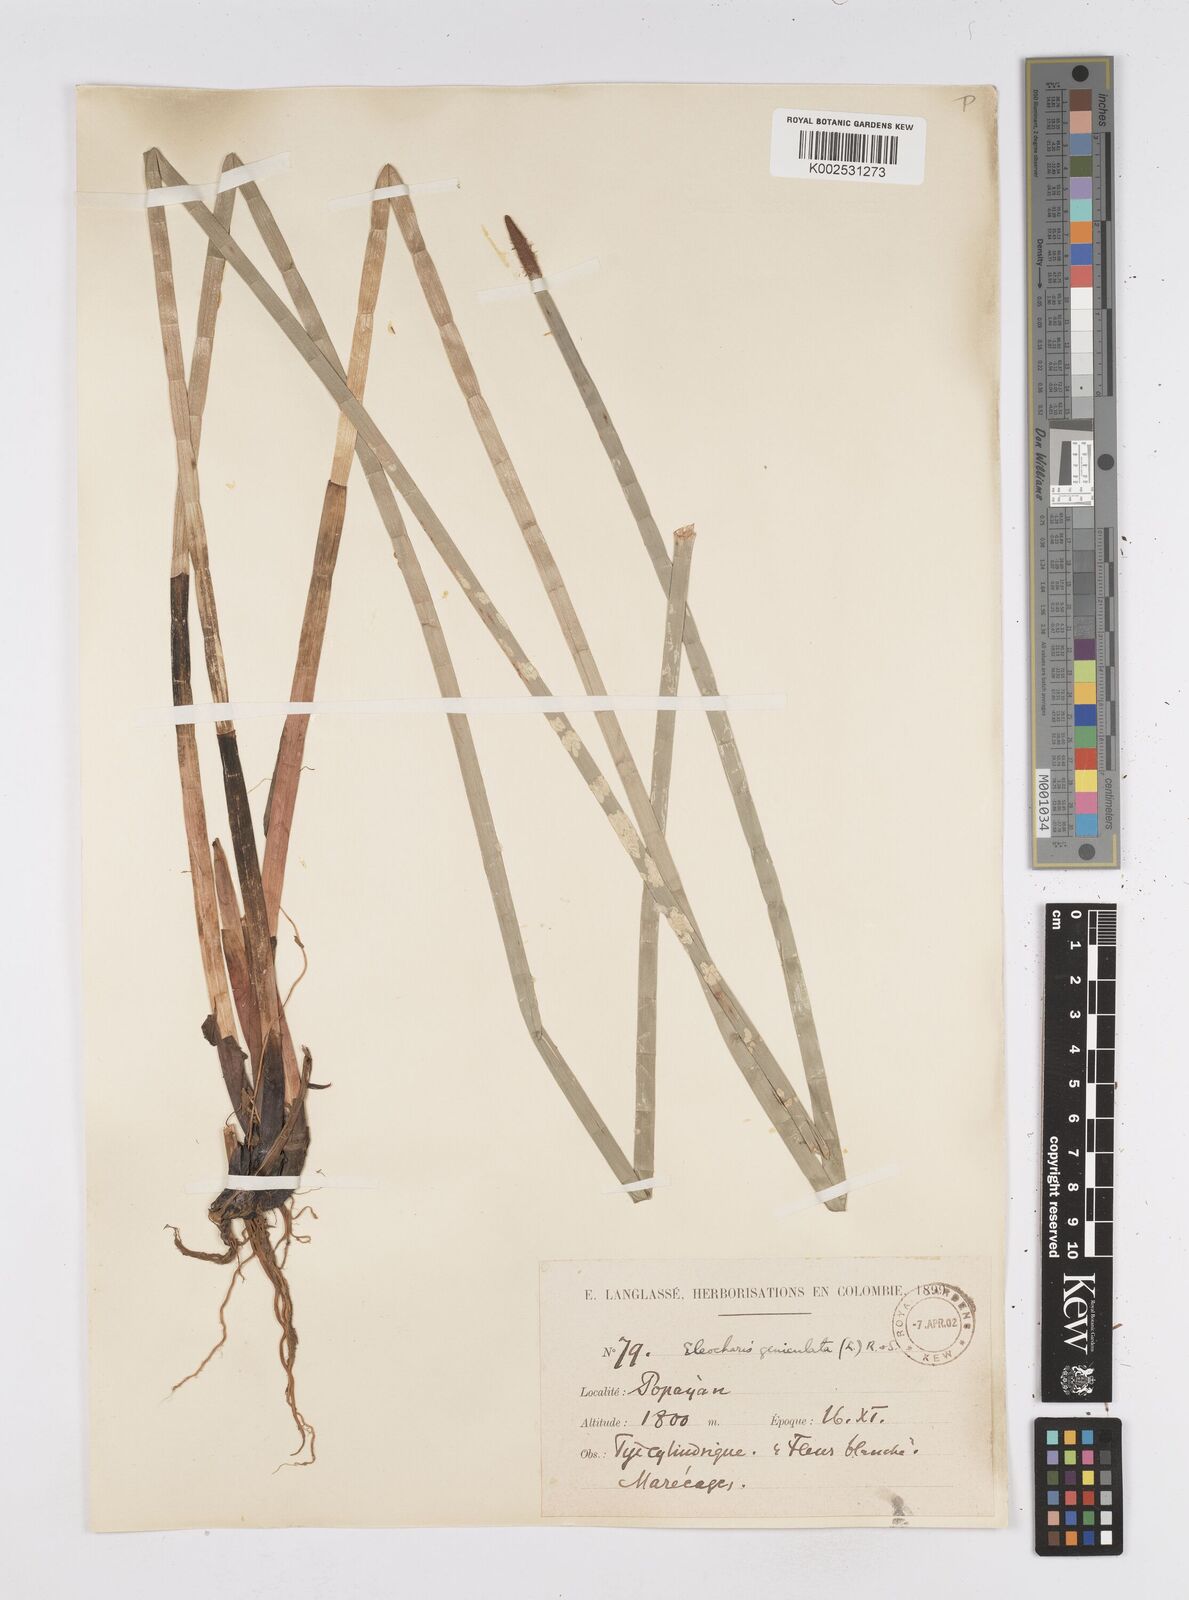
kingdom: Plantae
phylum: Tracheophyta
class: Liliopsida
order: Poales
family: Cyperaceae
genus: Eleocharis
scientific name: Eleocharis elegans
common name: Elegant spike-rush
